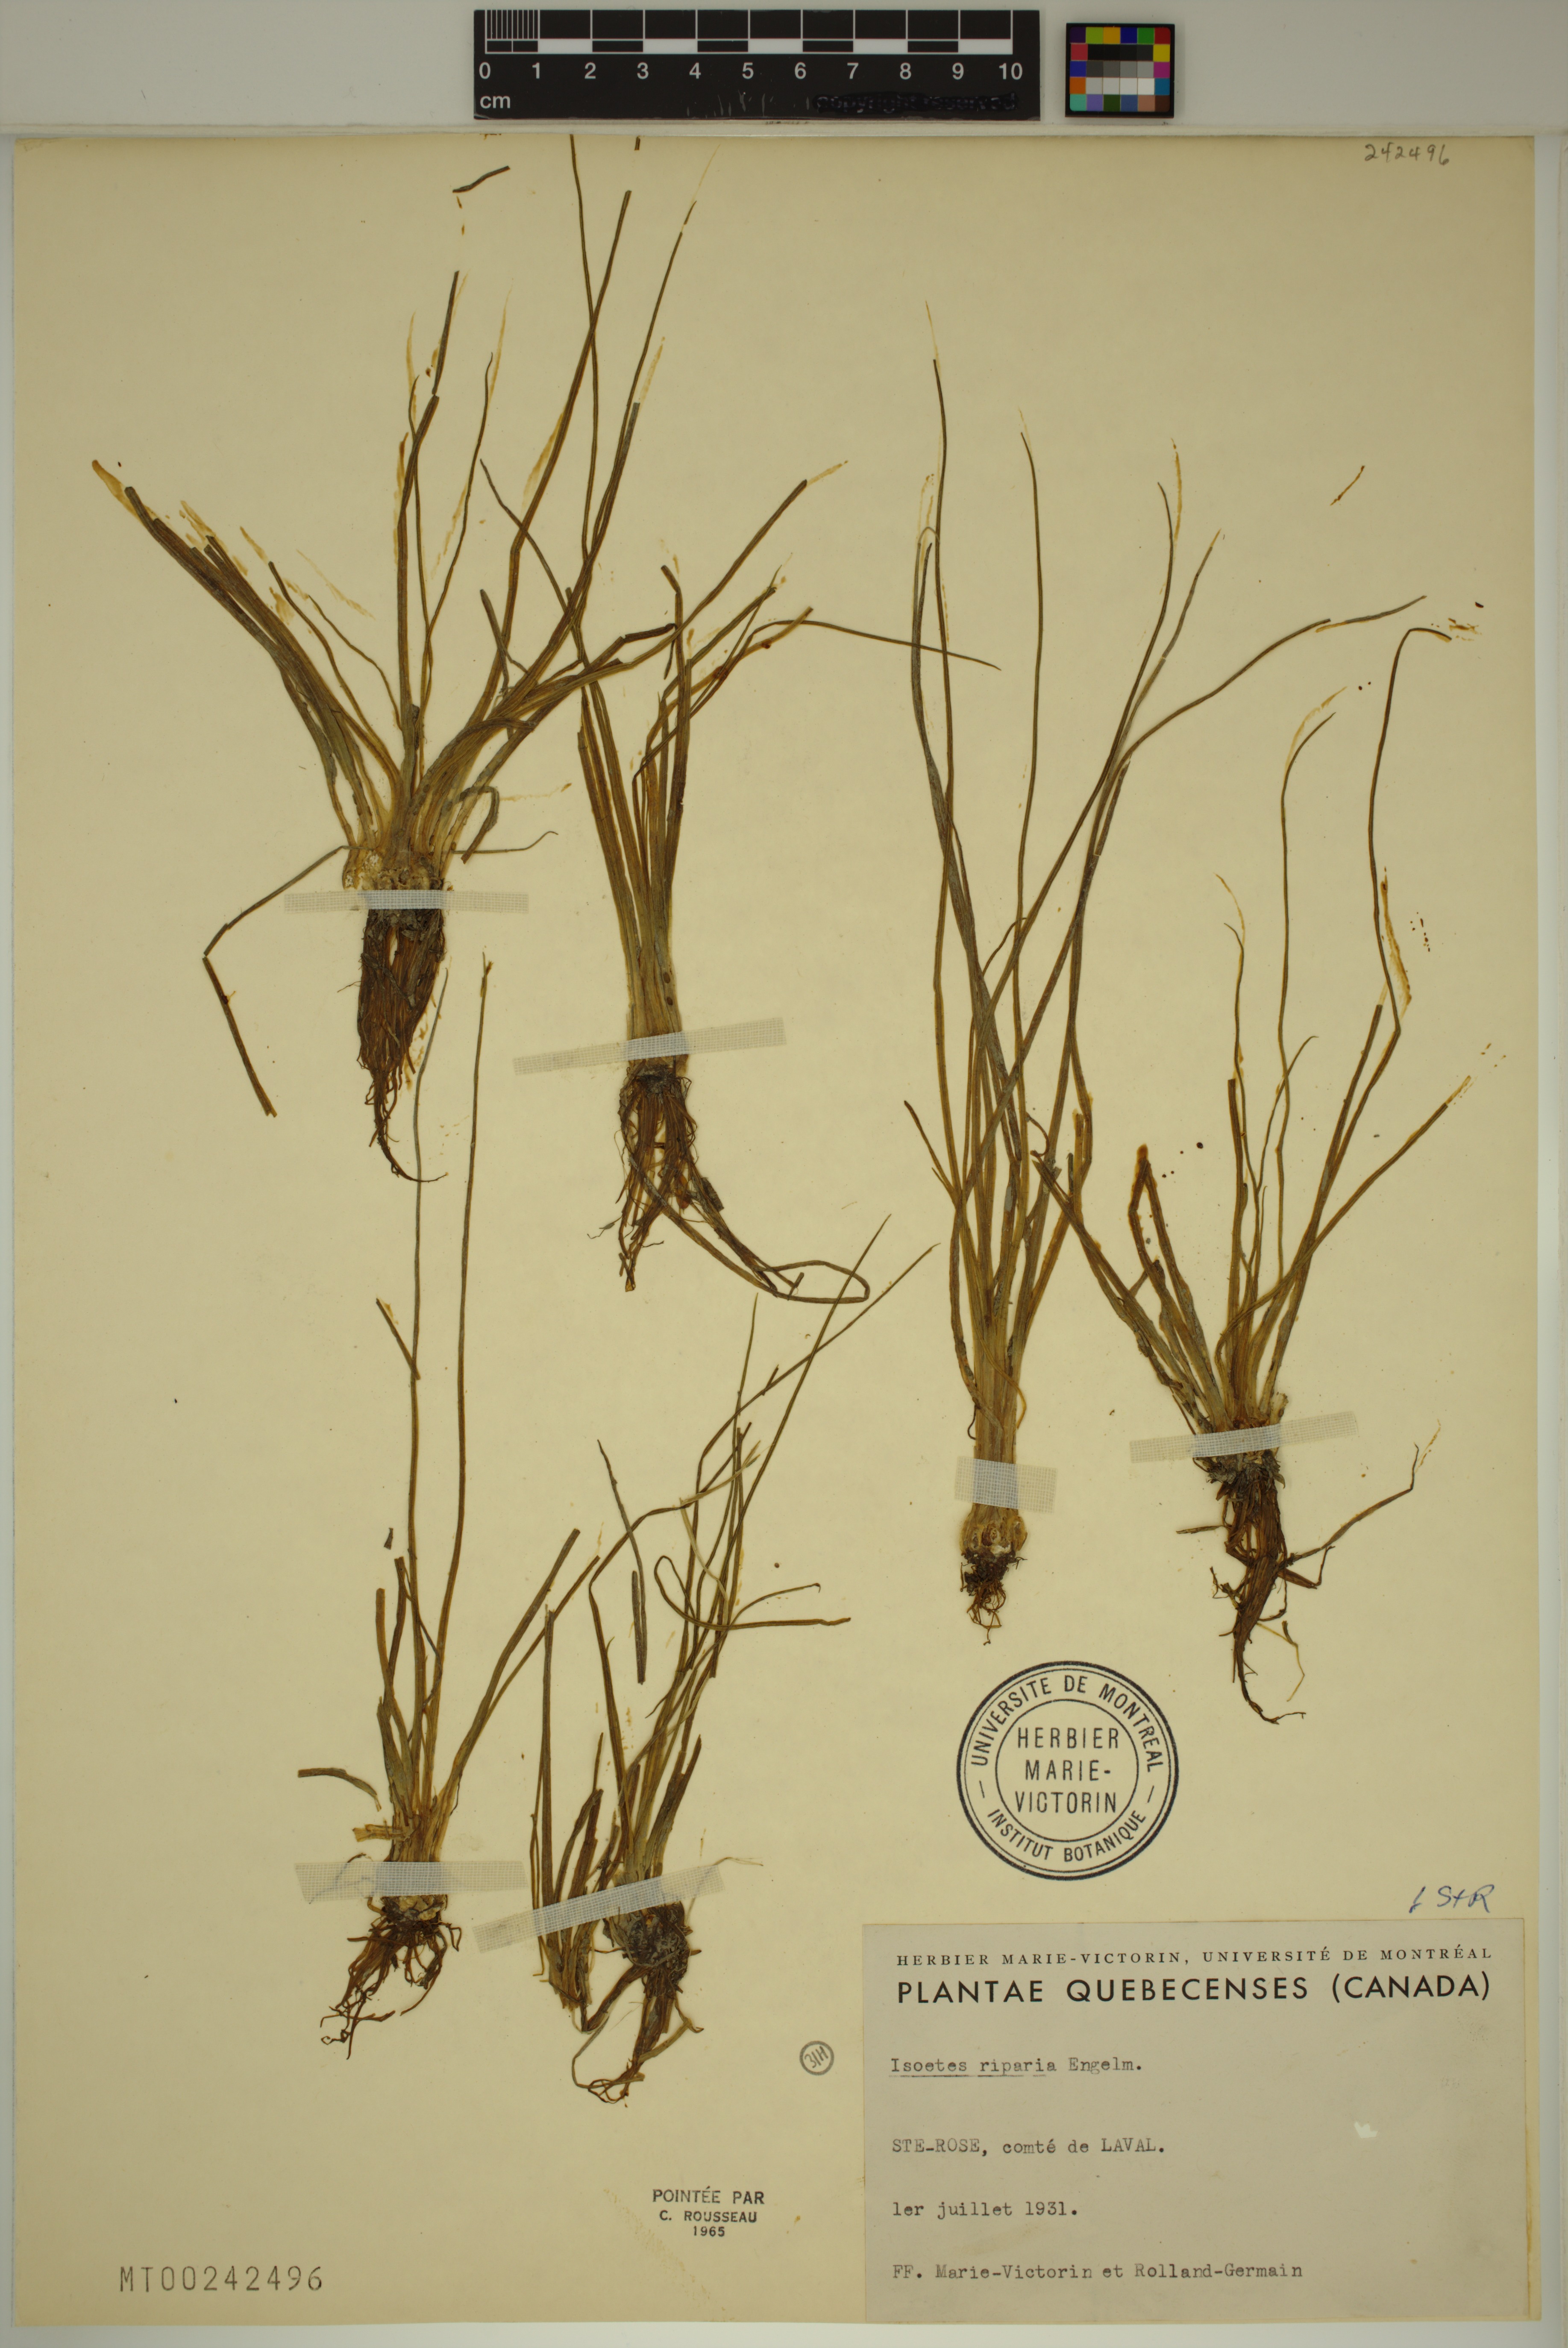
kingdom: Plantae
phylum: Tracheophyta
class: Lycopodiopsida
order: Isoetales
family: Isoetaceae
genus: Isoetes
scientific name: Isoetes septentrionalis
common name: Northern quillwort
